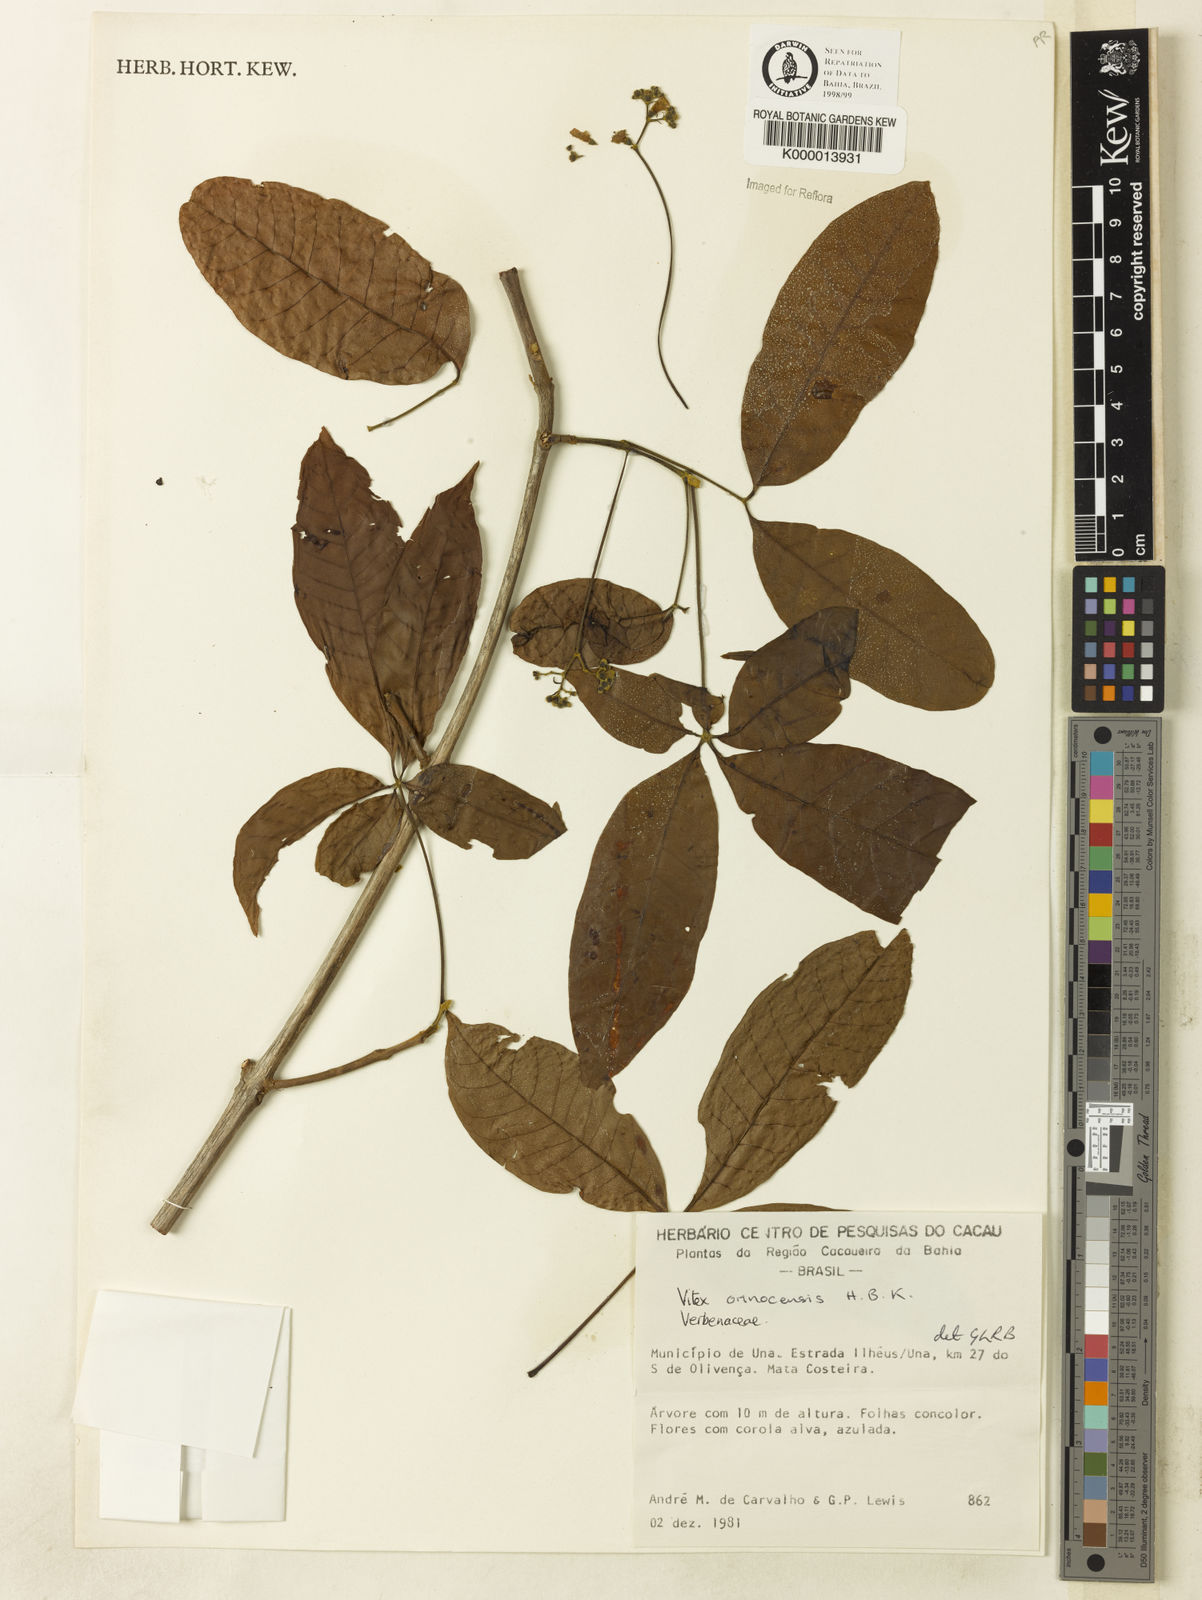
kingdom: Plantae
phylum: Tracheophyta
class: Magnoliopsida
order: Lamiales
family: Lamiaceae
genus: Vitex
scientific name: Vitex orinocensis
